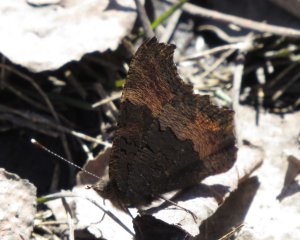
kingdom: Animalia
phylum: Arthropoda
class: Insecta
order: Lepidoptera
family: Nymphalidae
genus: Aglais
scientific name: Aglais milberti
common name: Milbert's Tortoiseshell
